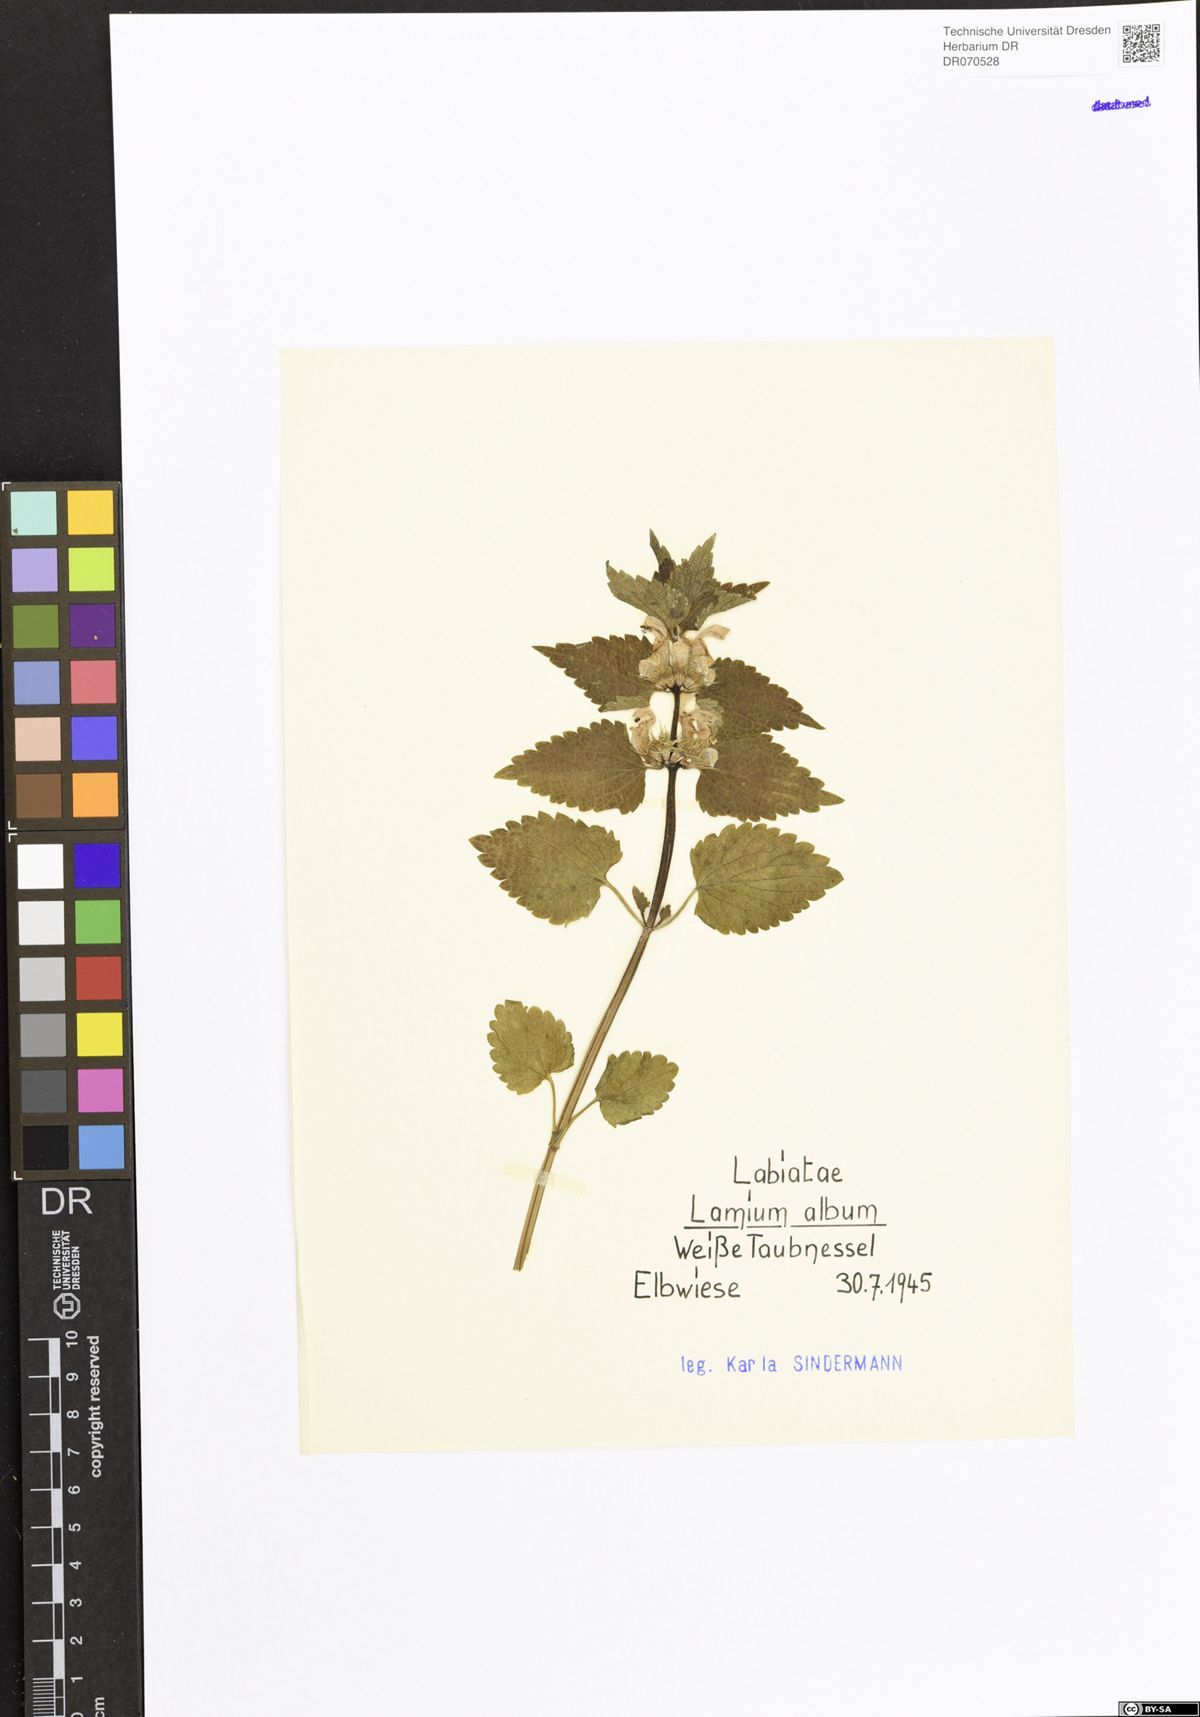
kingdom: Plantae
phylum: Tracheophyta
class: Magnoliopsida
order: Lamiales
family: Lamiaceae
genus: Lamium
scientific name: Lamium album
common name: White dead-nettle
